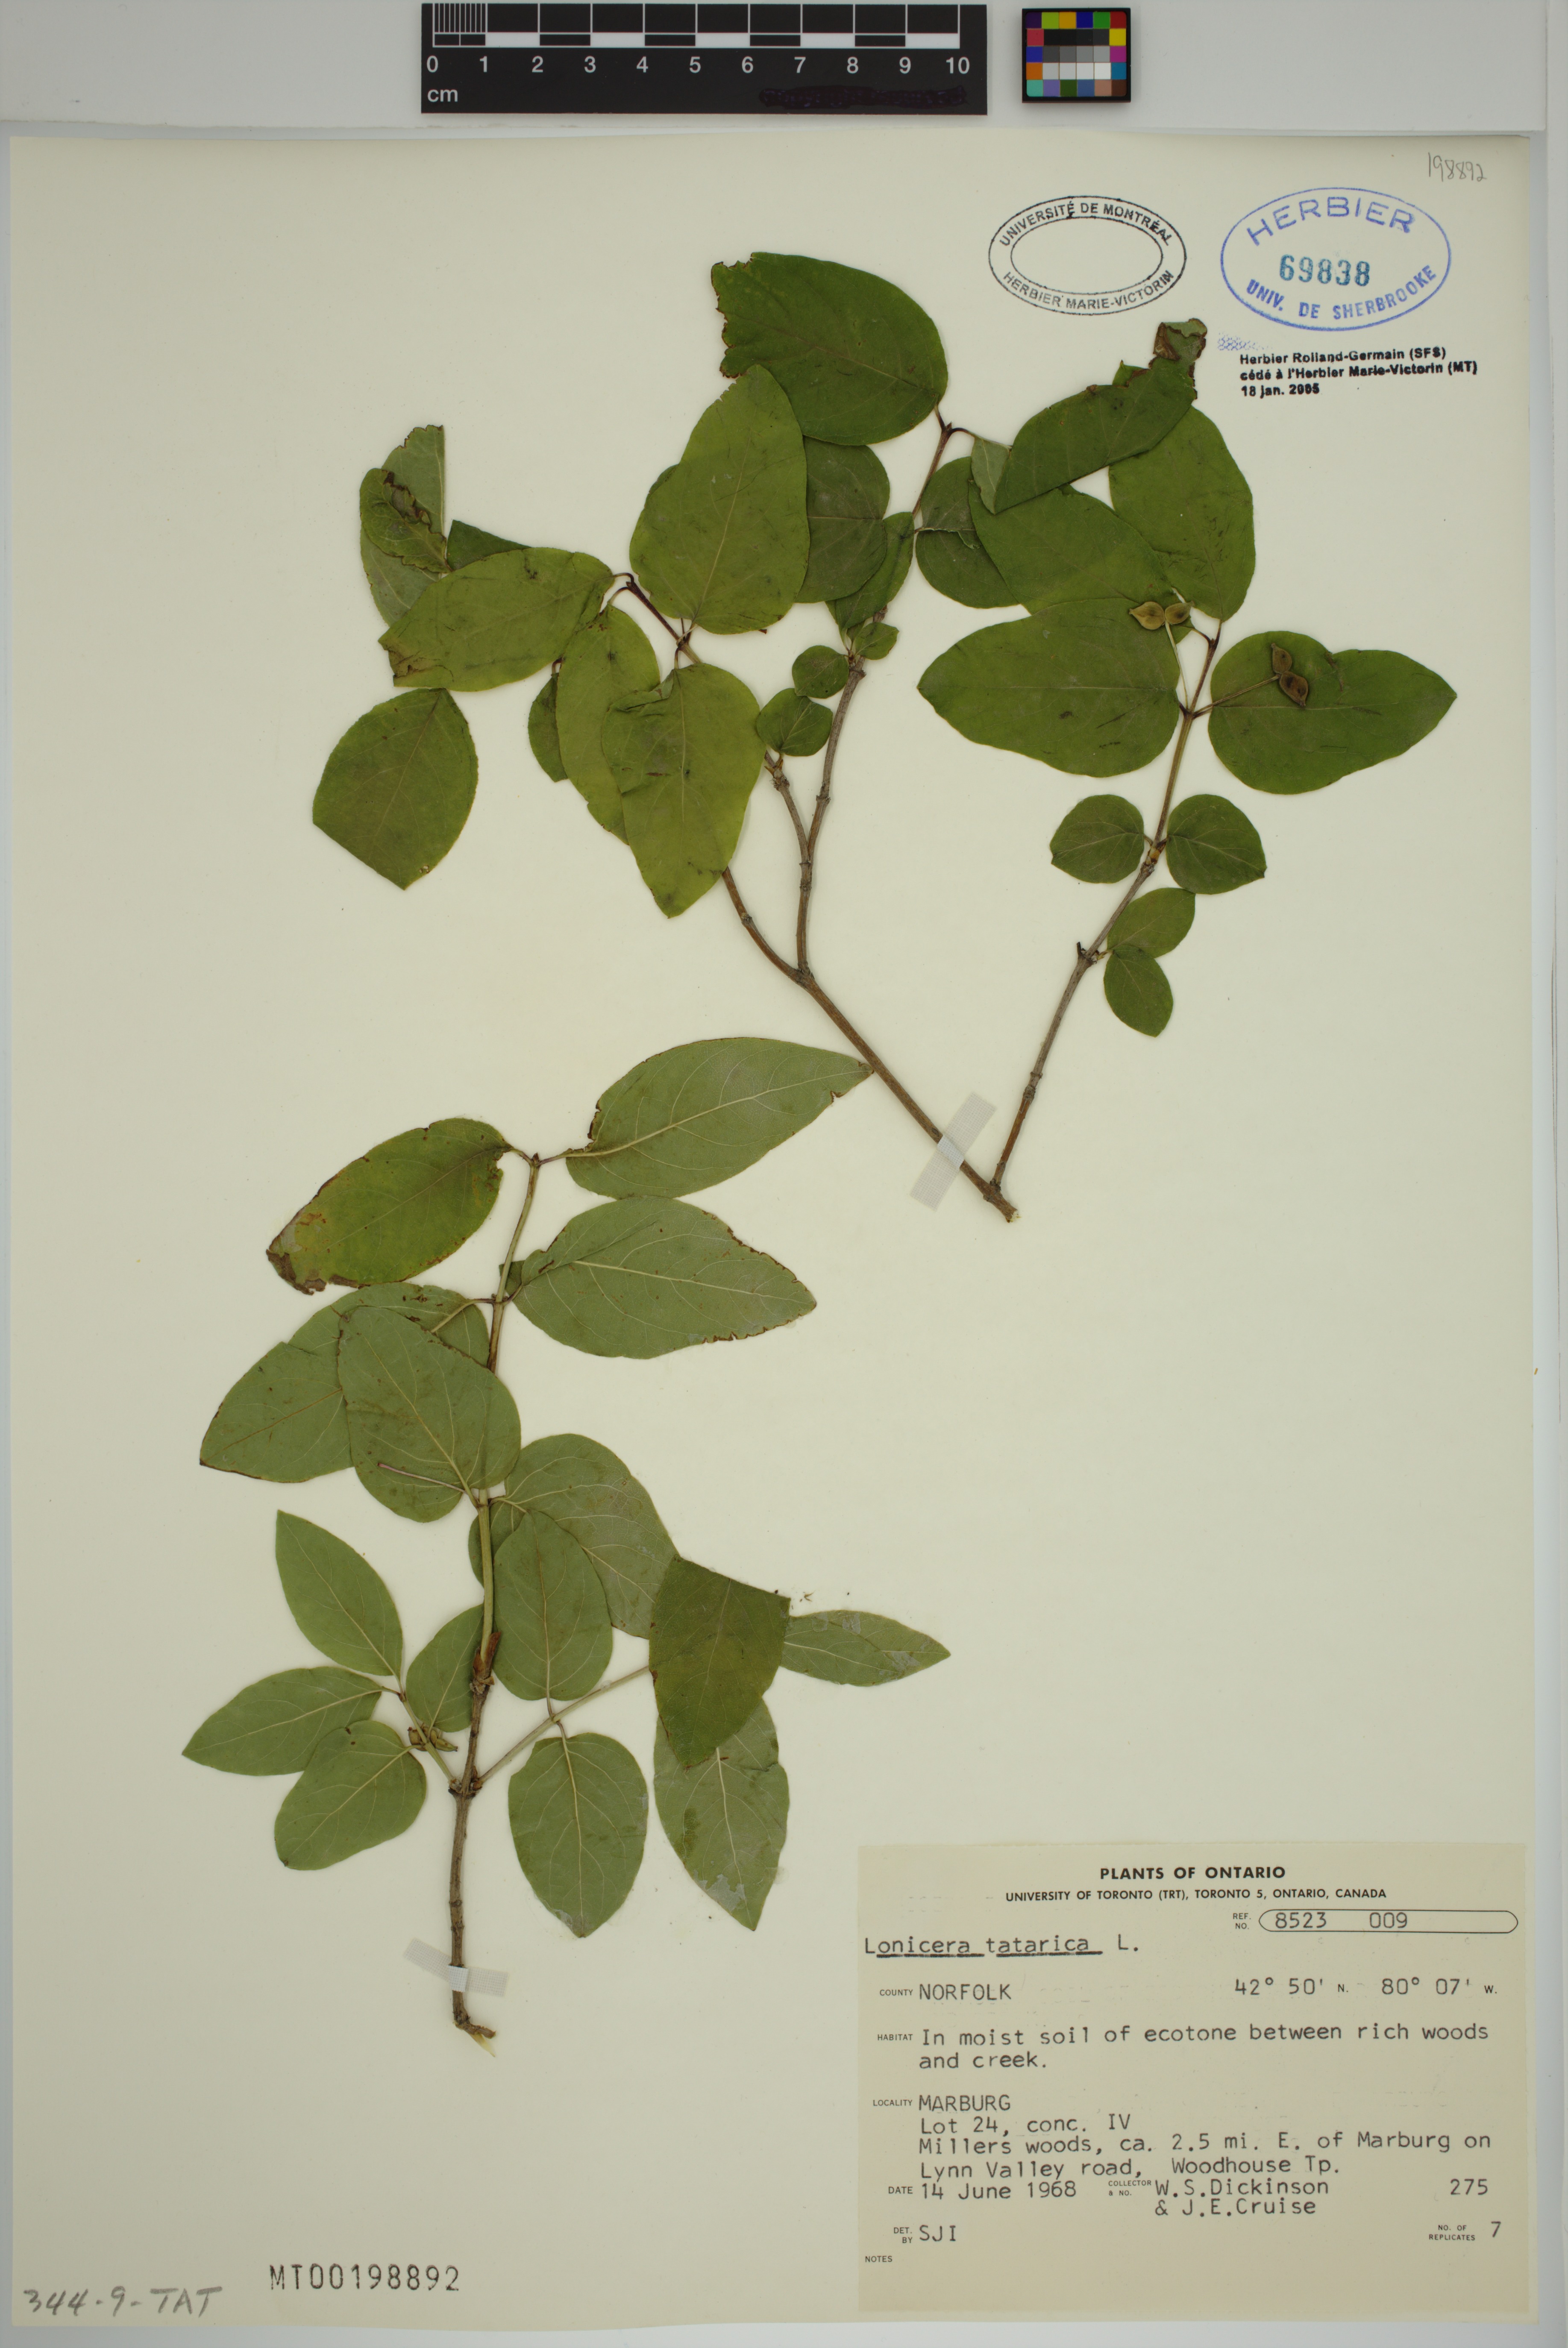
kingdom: Plantae
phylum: Tracheophyta
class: Magnoliopsida
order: Dipsacales
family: Caprifoliaceae
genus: Lonicera
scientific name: Lonicera tatarica
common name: Tatarian honeysuckle
